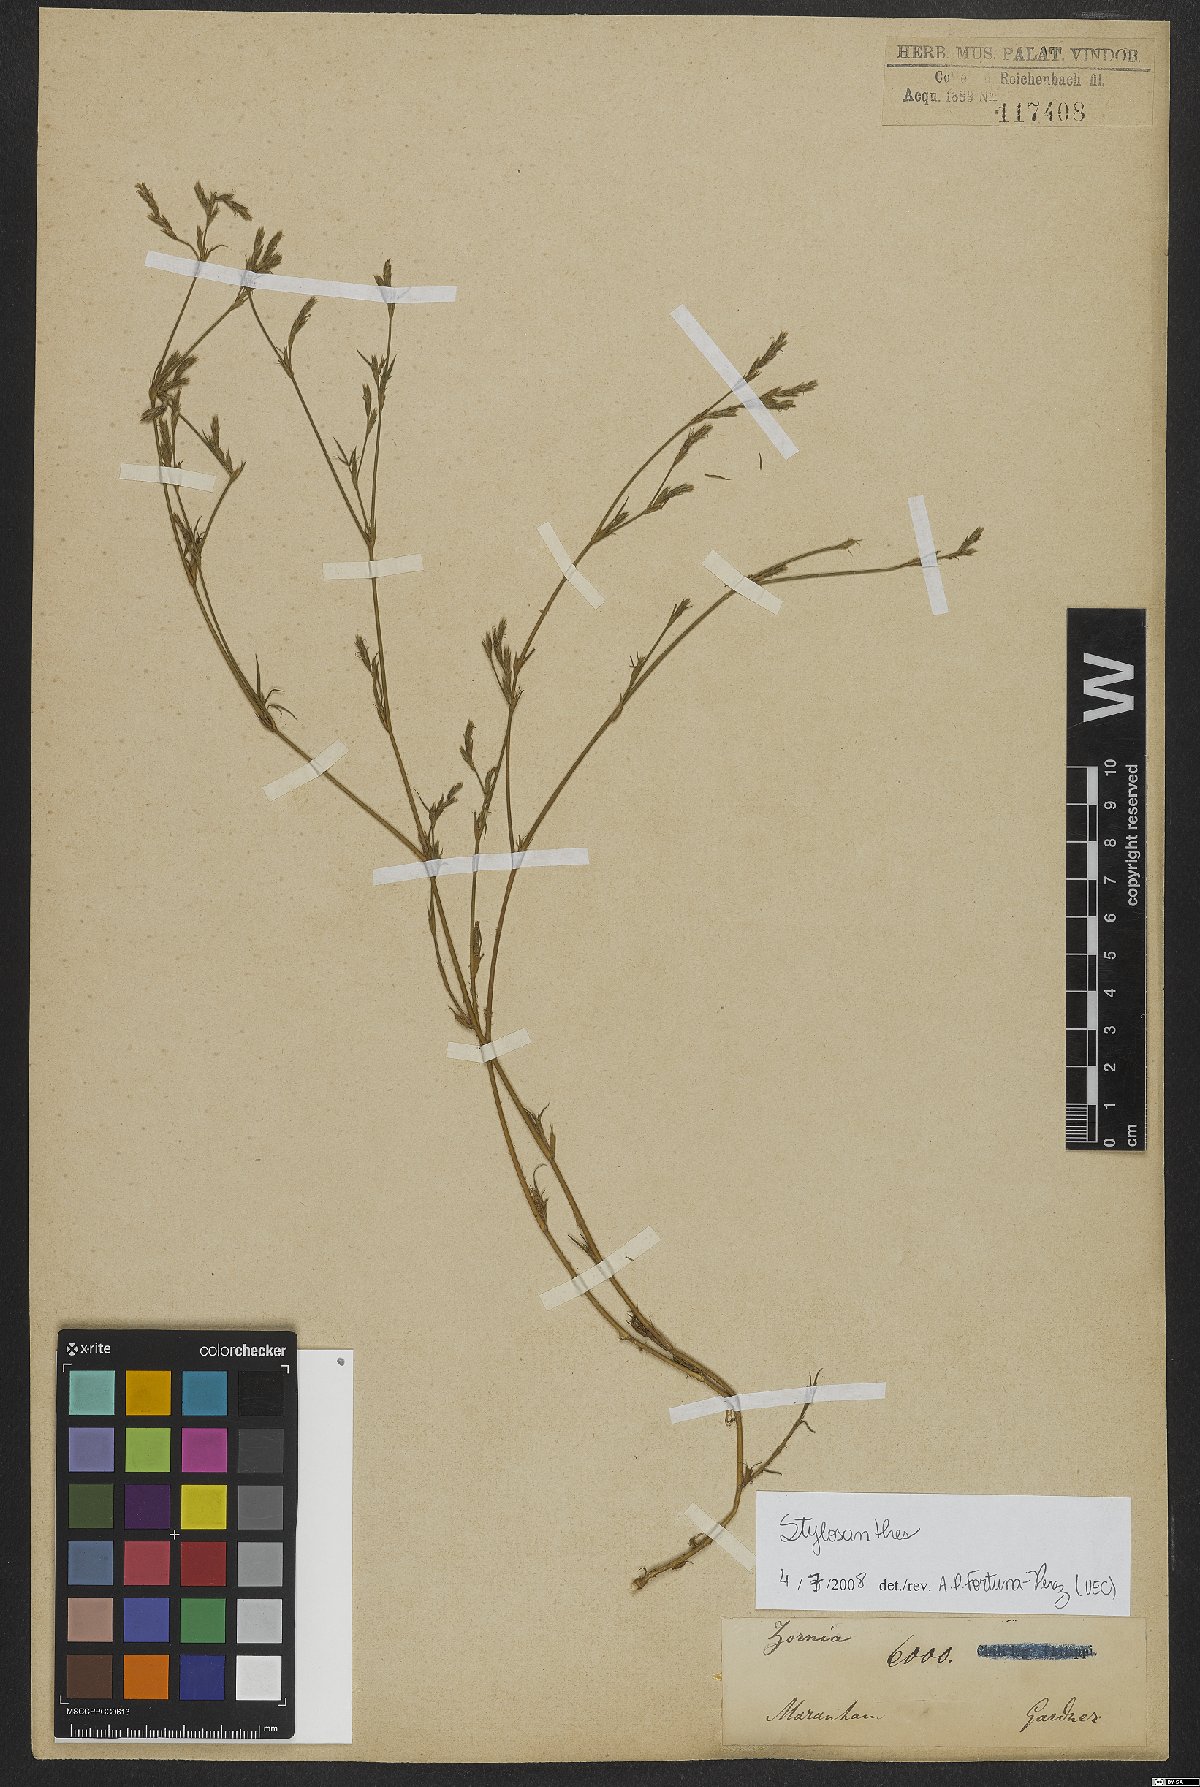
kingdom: Plantae
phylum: Tracheophyta
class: Magnoliopsida
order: Fabales
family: Fabaceae
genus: Stylosanthes
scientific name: Stylosanthes
